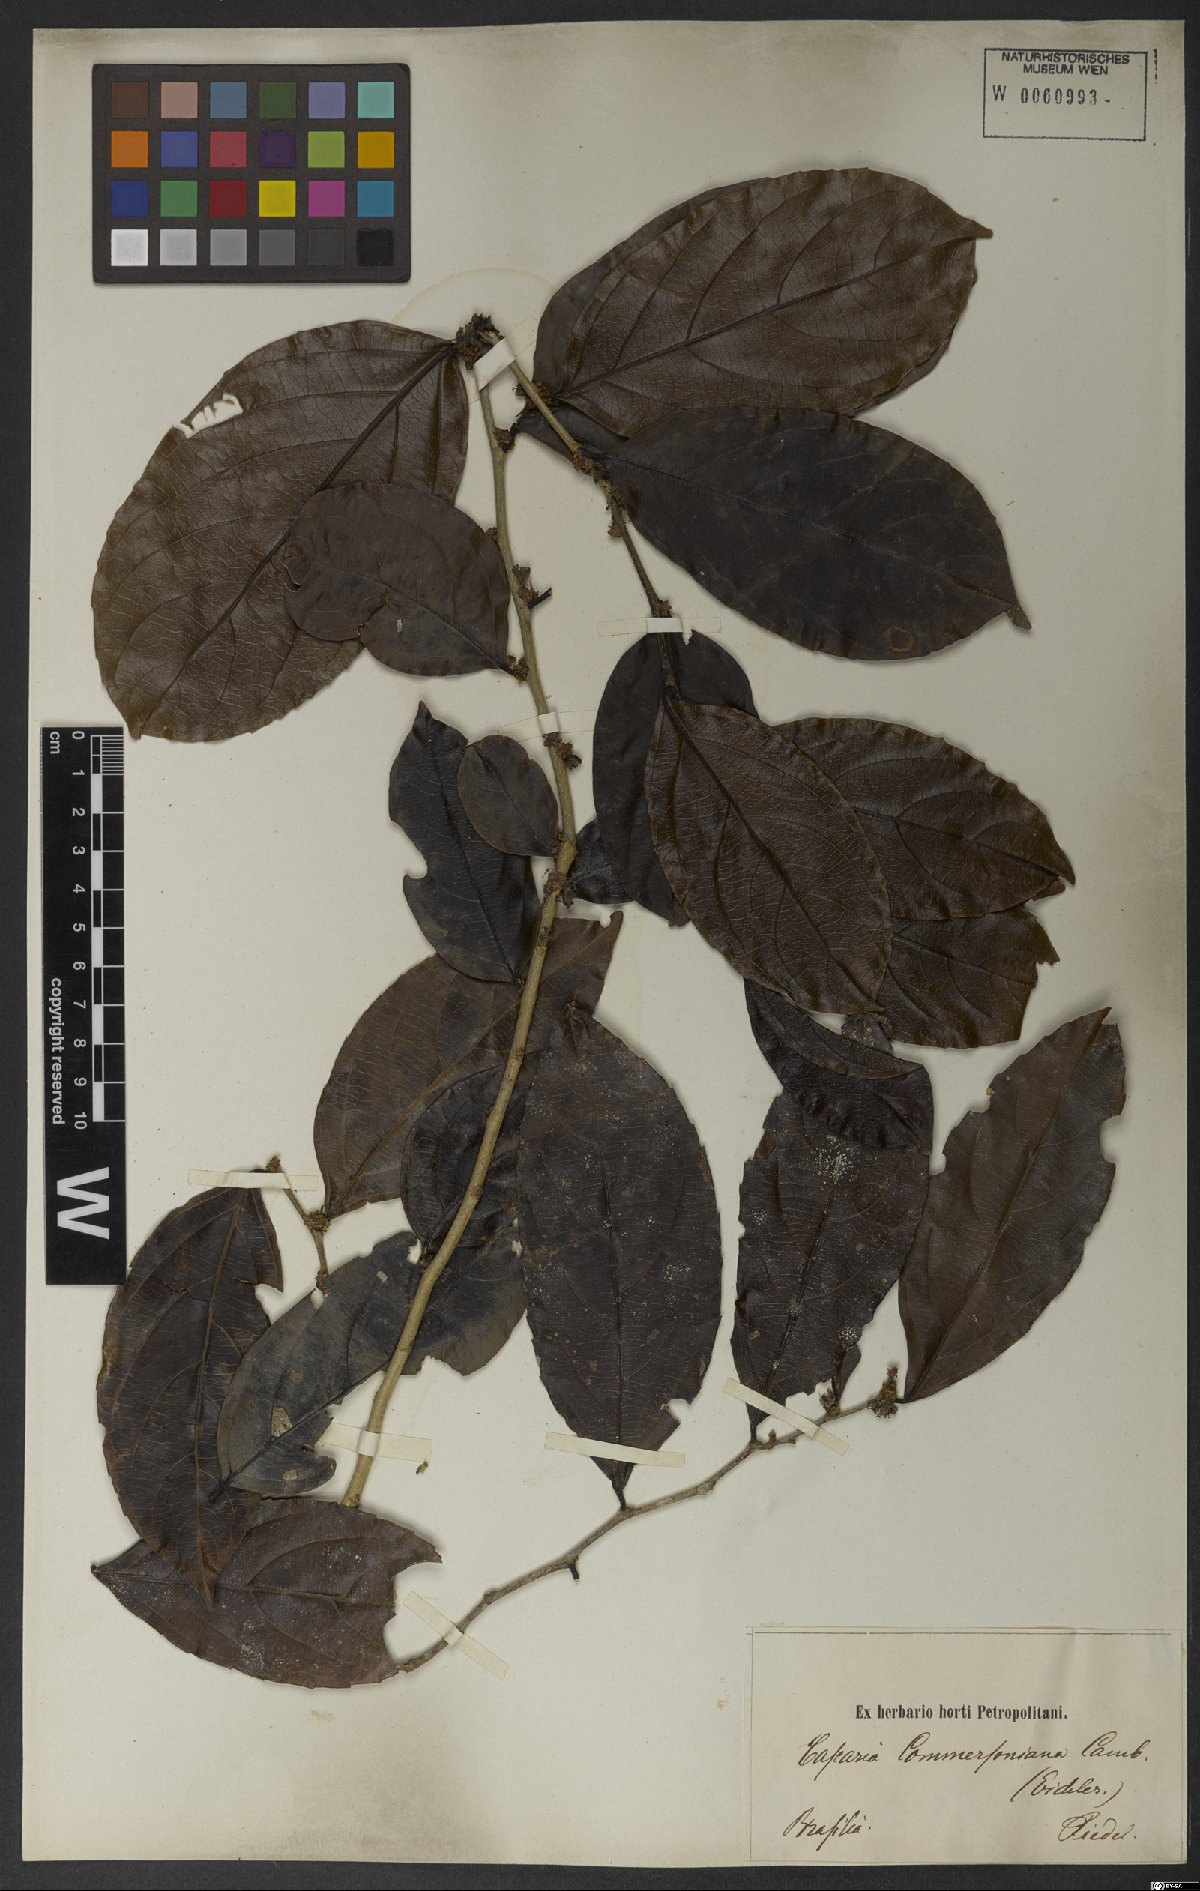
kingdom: Plantae
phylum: Tracheophyta
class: Magnoliopsida
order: Malpighiales
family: Salicaceae
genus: Piparea
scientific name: Piparea dentata
